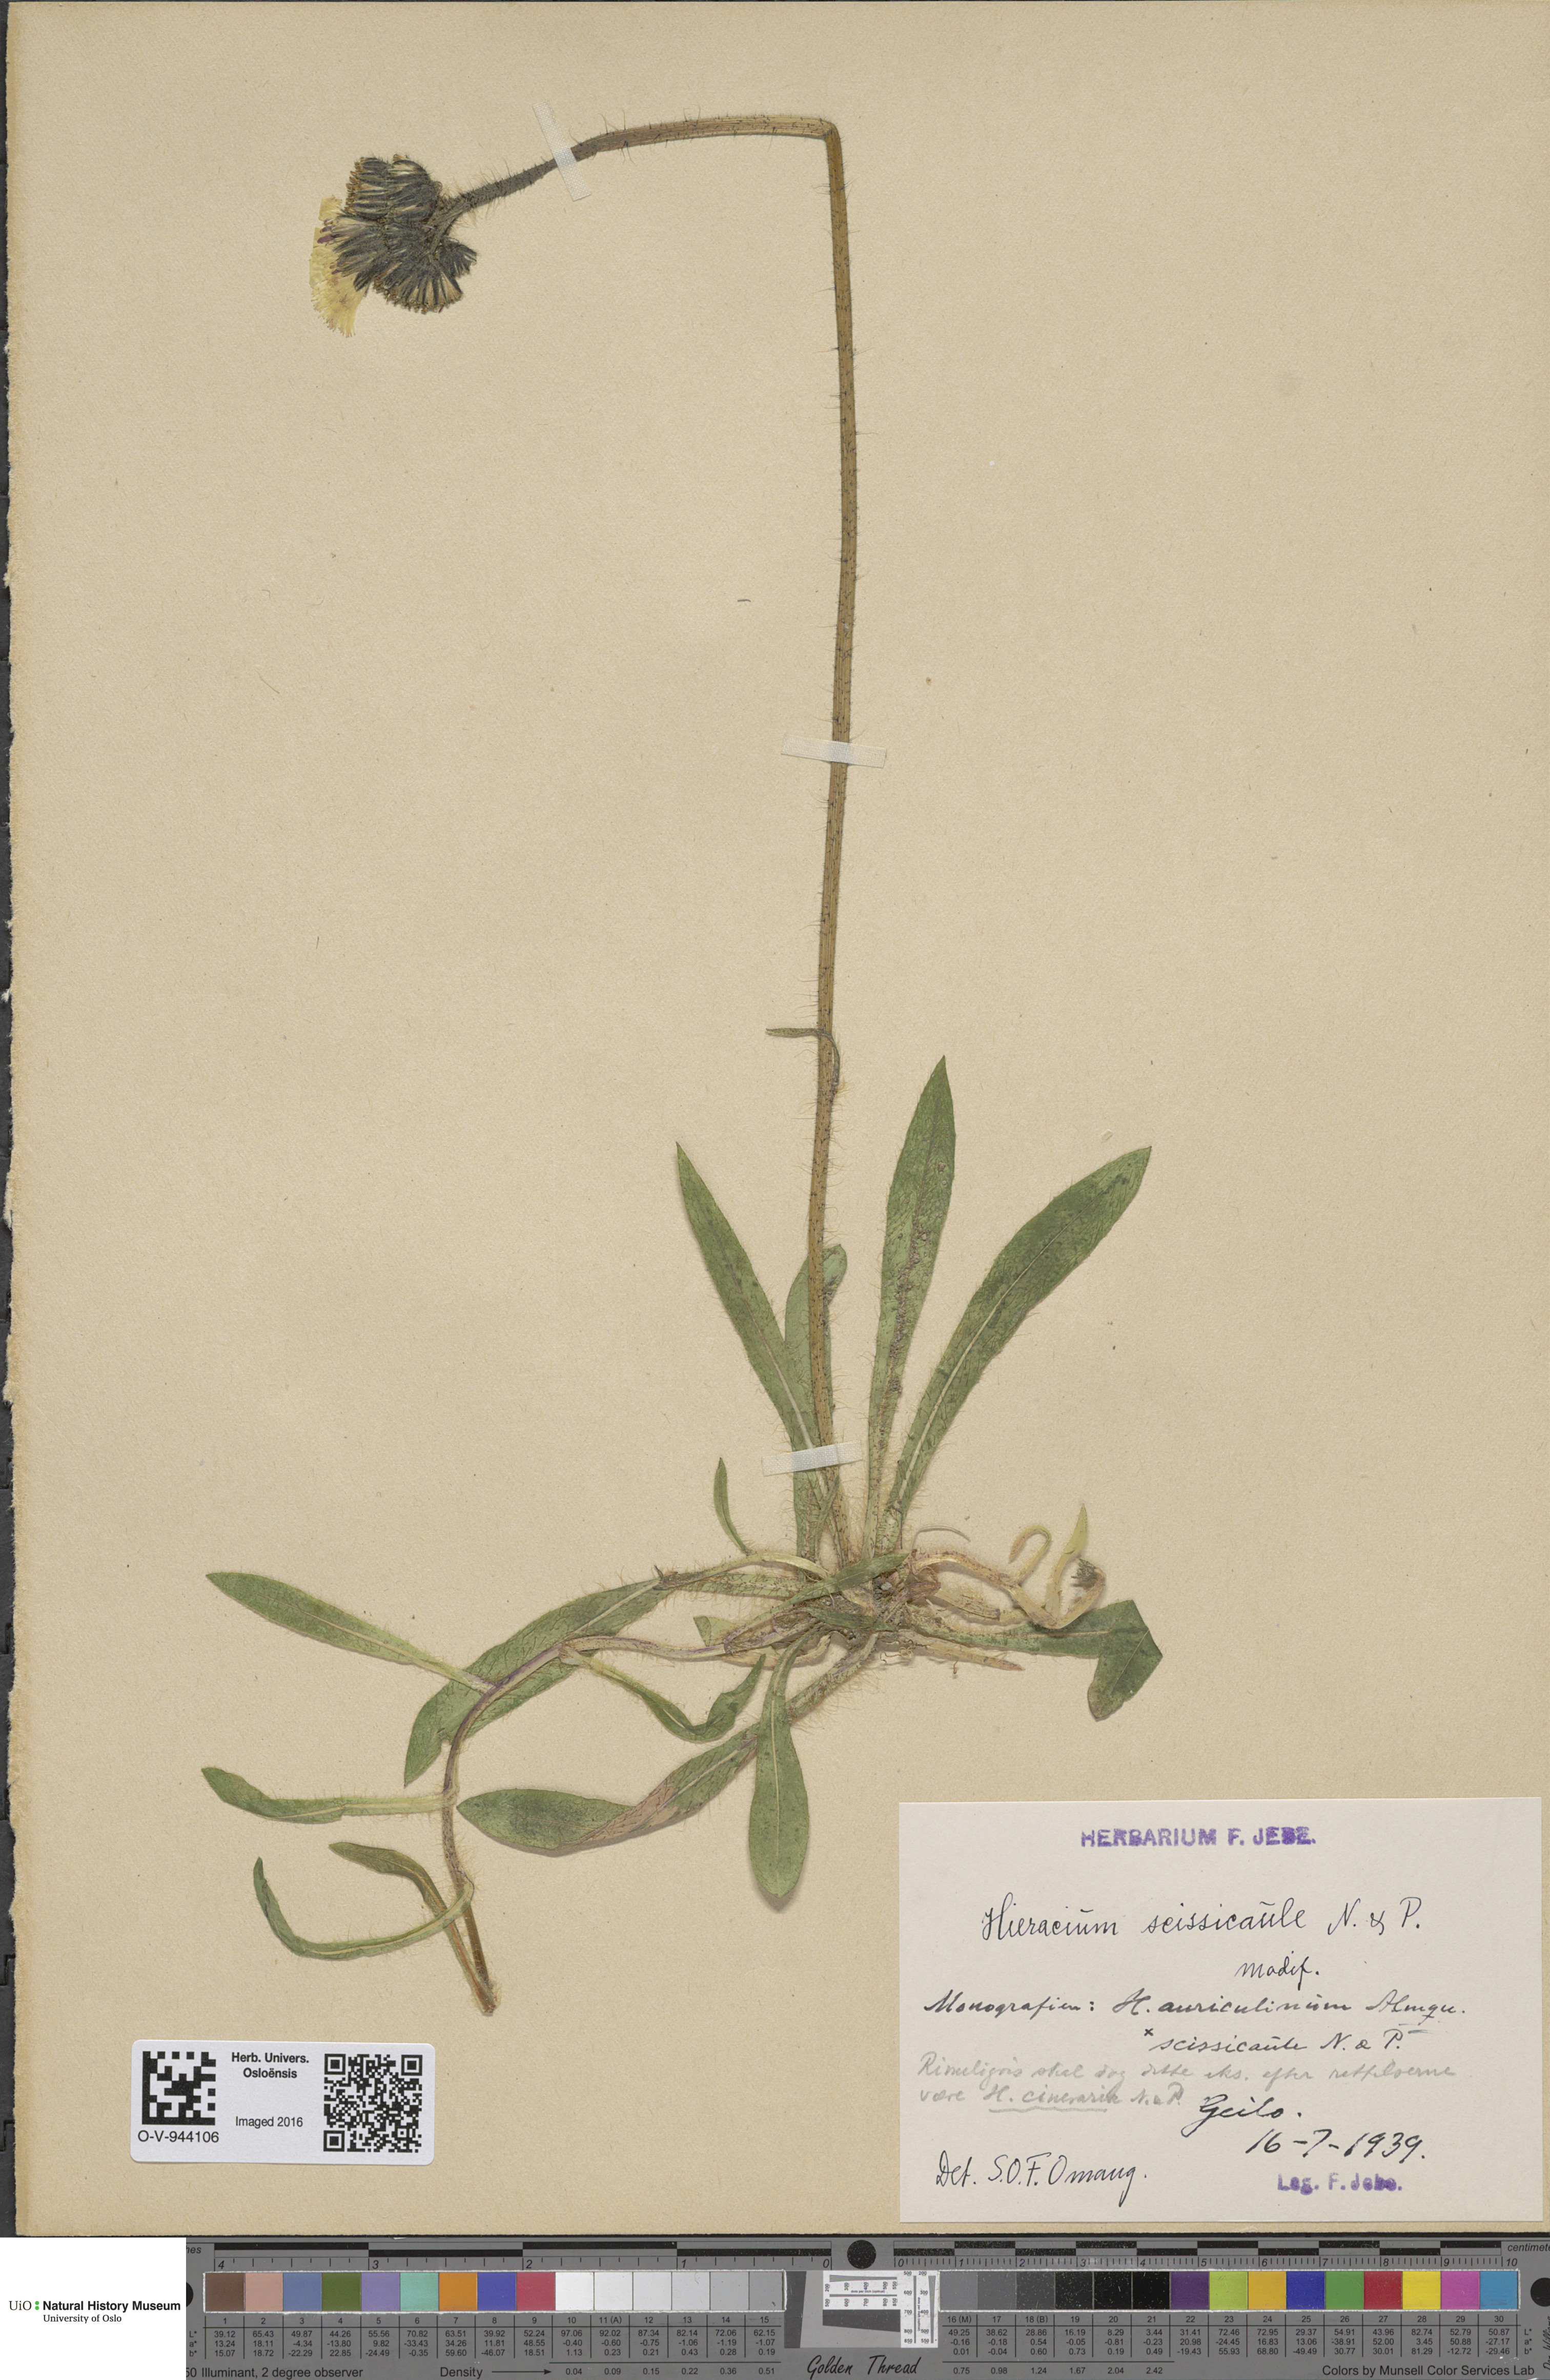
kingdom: Plantae
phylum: Tracheophyta
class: Magnoliopsida
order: Asterales
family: Asteraceae
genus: Pilosella
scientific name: Pilosella dubia
